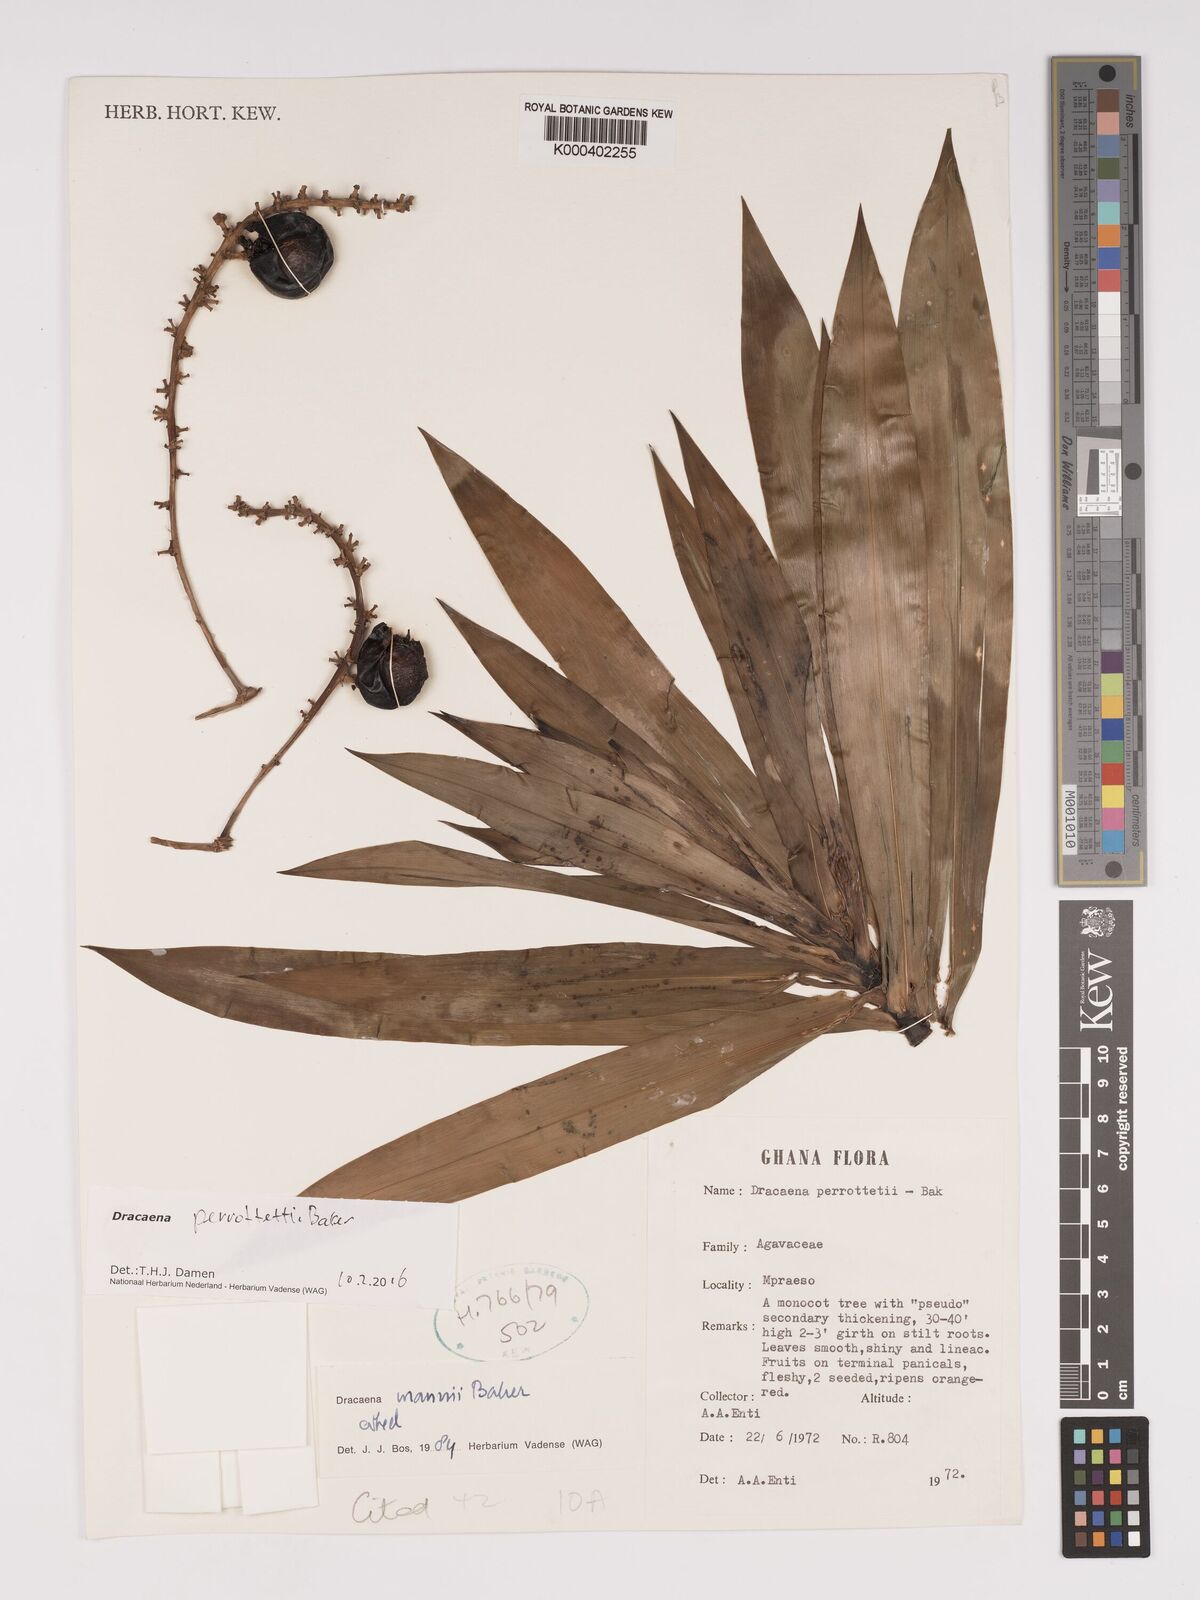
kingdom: Plantae
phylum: Tracheophyta
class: Liliopsida
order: Asparagales
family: Asparagaceae
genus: Dracaena
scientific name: Dracaena perrottetii
